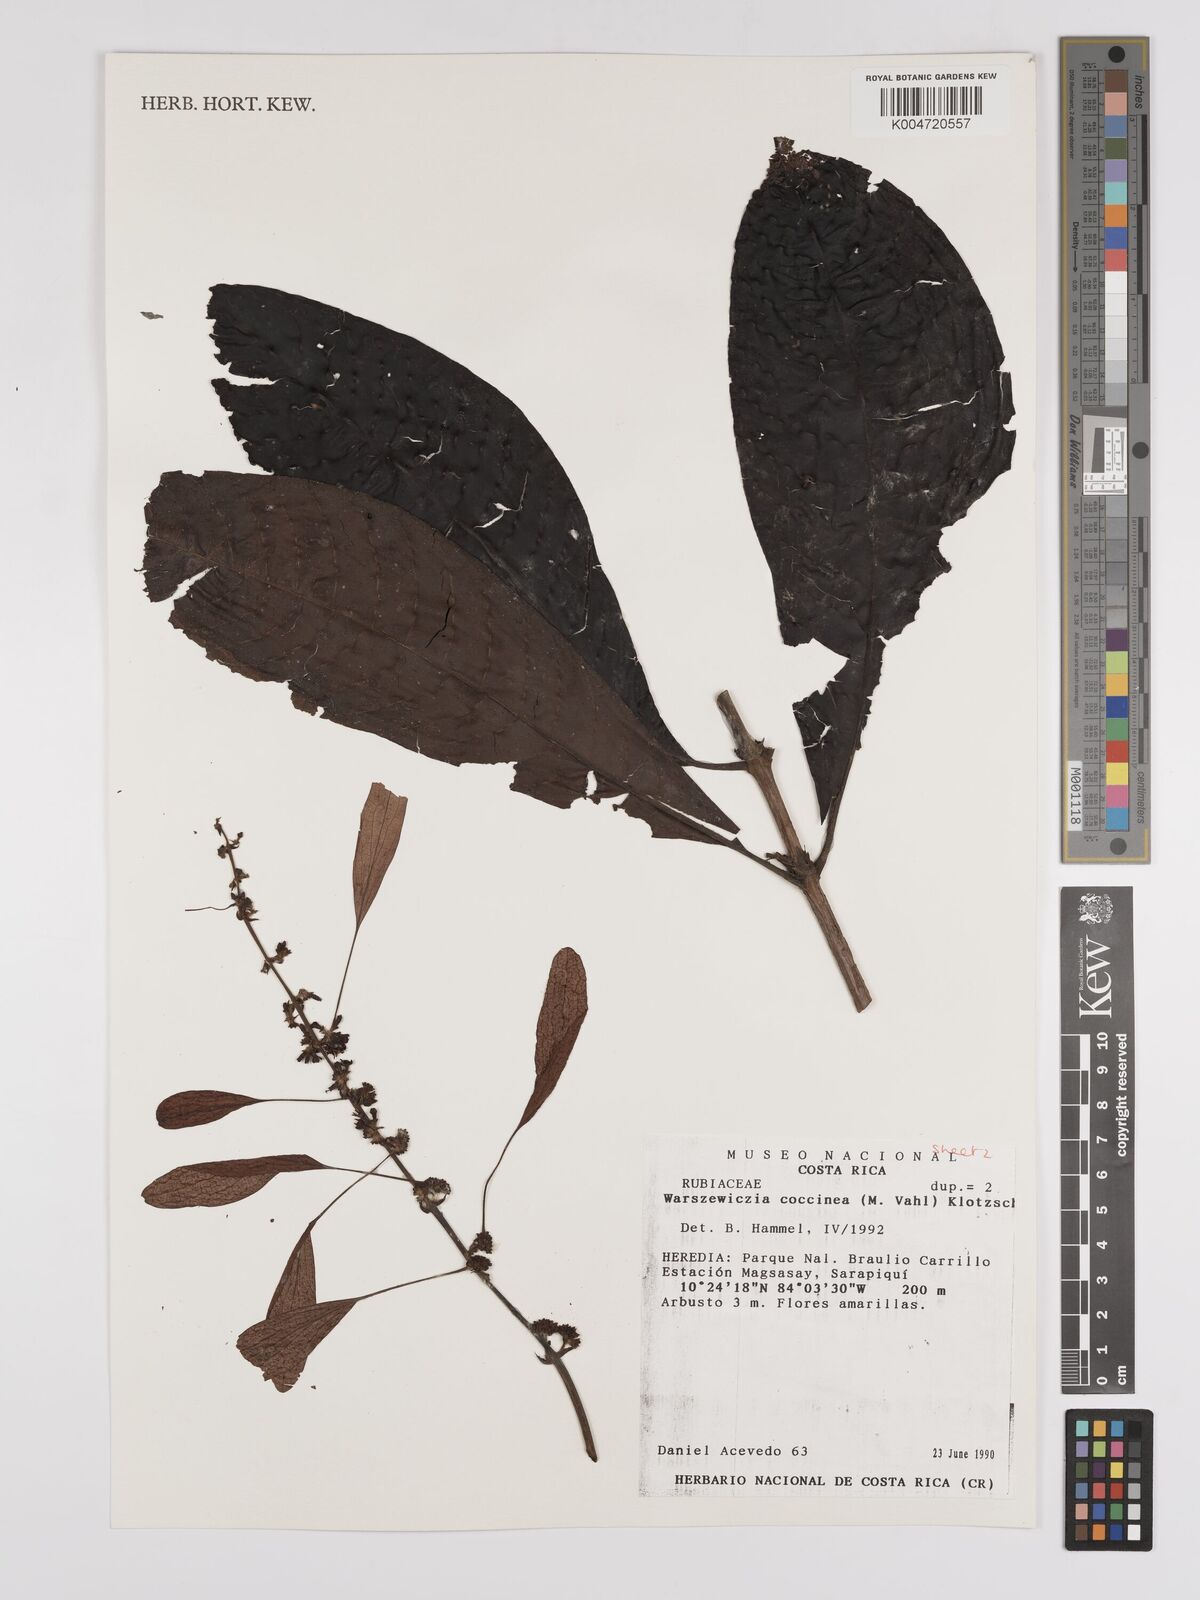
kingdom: Plantae
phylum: Tracheophyta
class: Magnoliopsida
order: Gentianales
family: Rubiaceae
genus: Warszewiczia
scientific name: Warszewiczia coccinea
